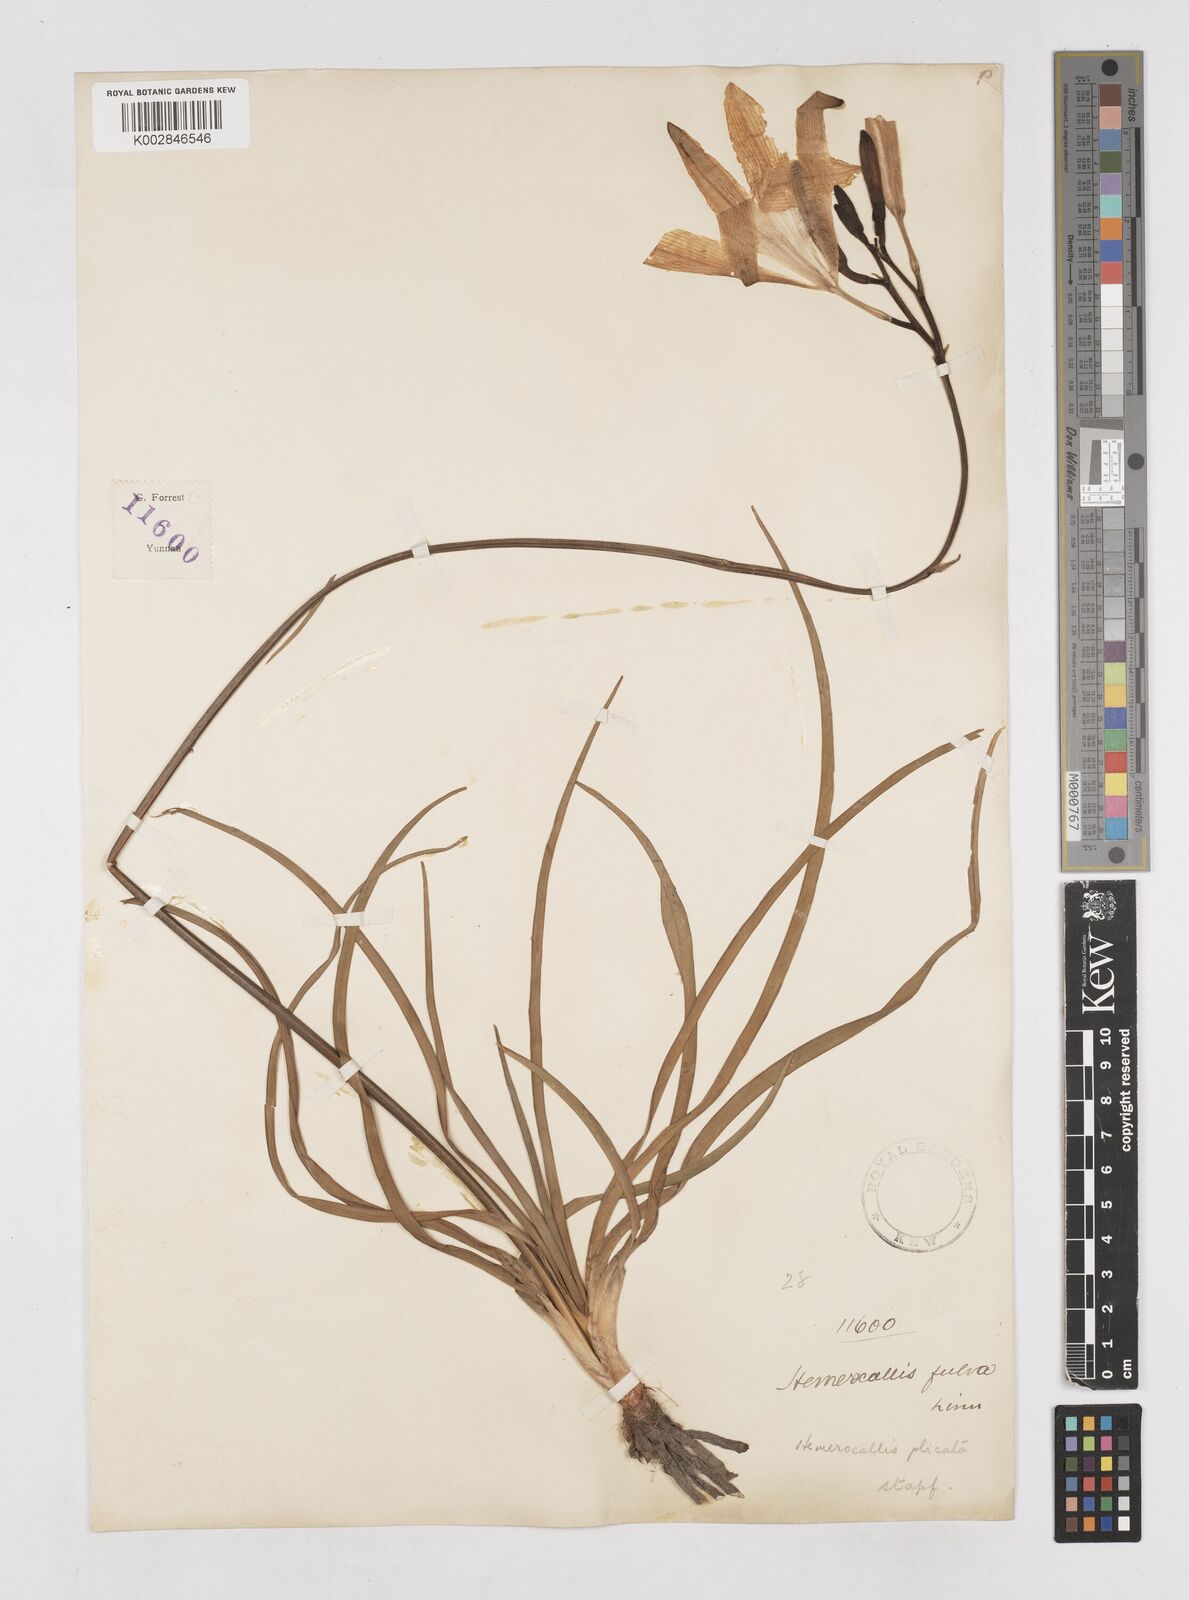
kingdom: Plantae
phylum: Tracheophyta
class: Liliopsida
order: Asparagales
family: Asphodelaceae
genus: Hemerocallis
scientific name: Hemerocallis plicata
